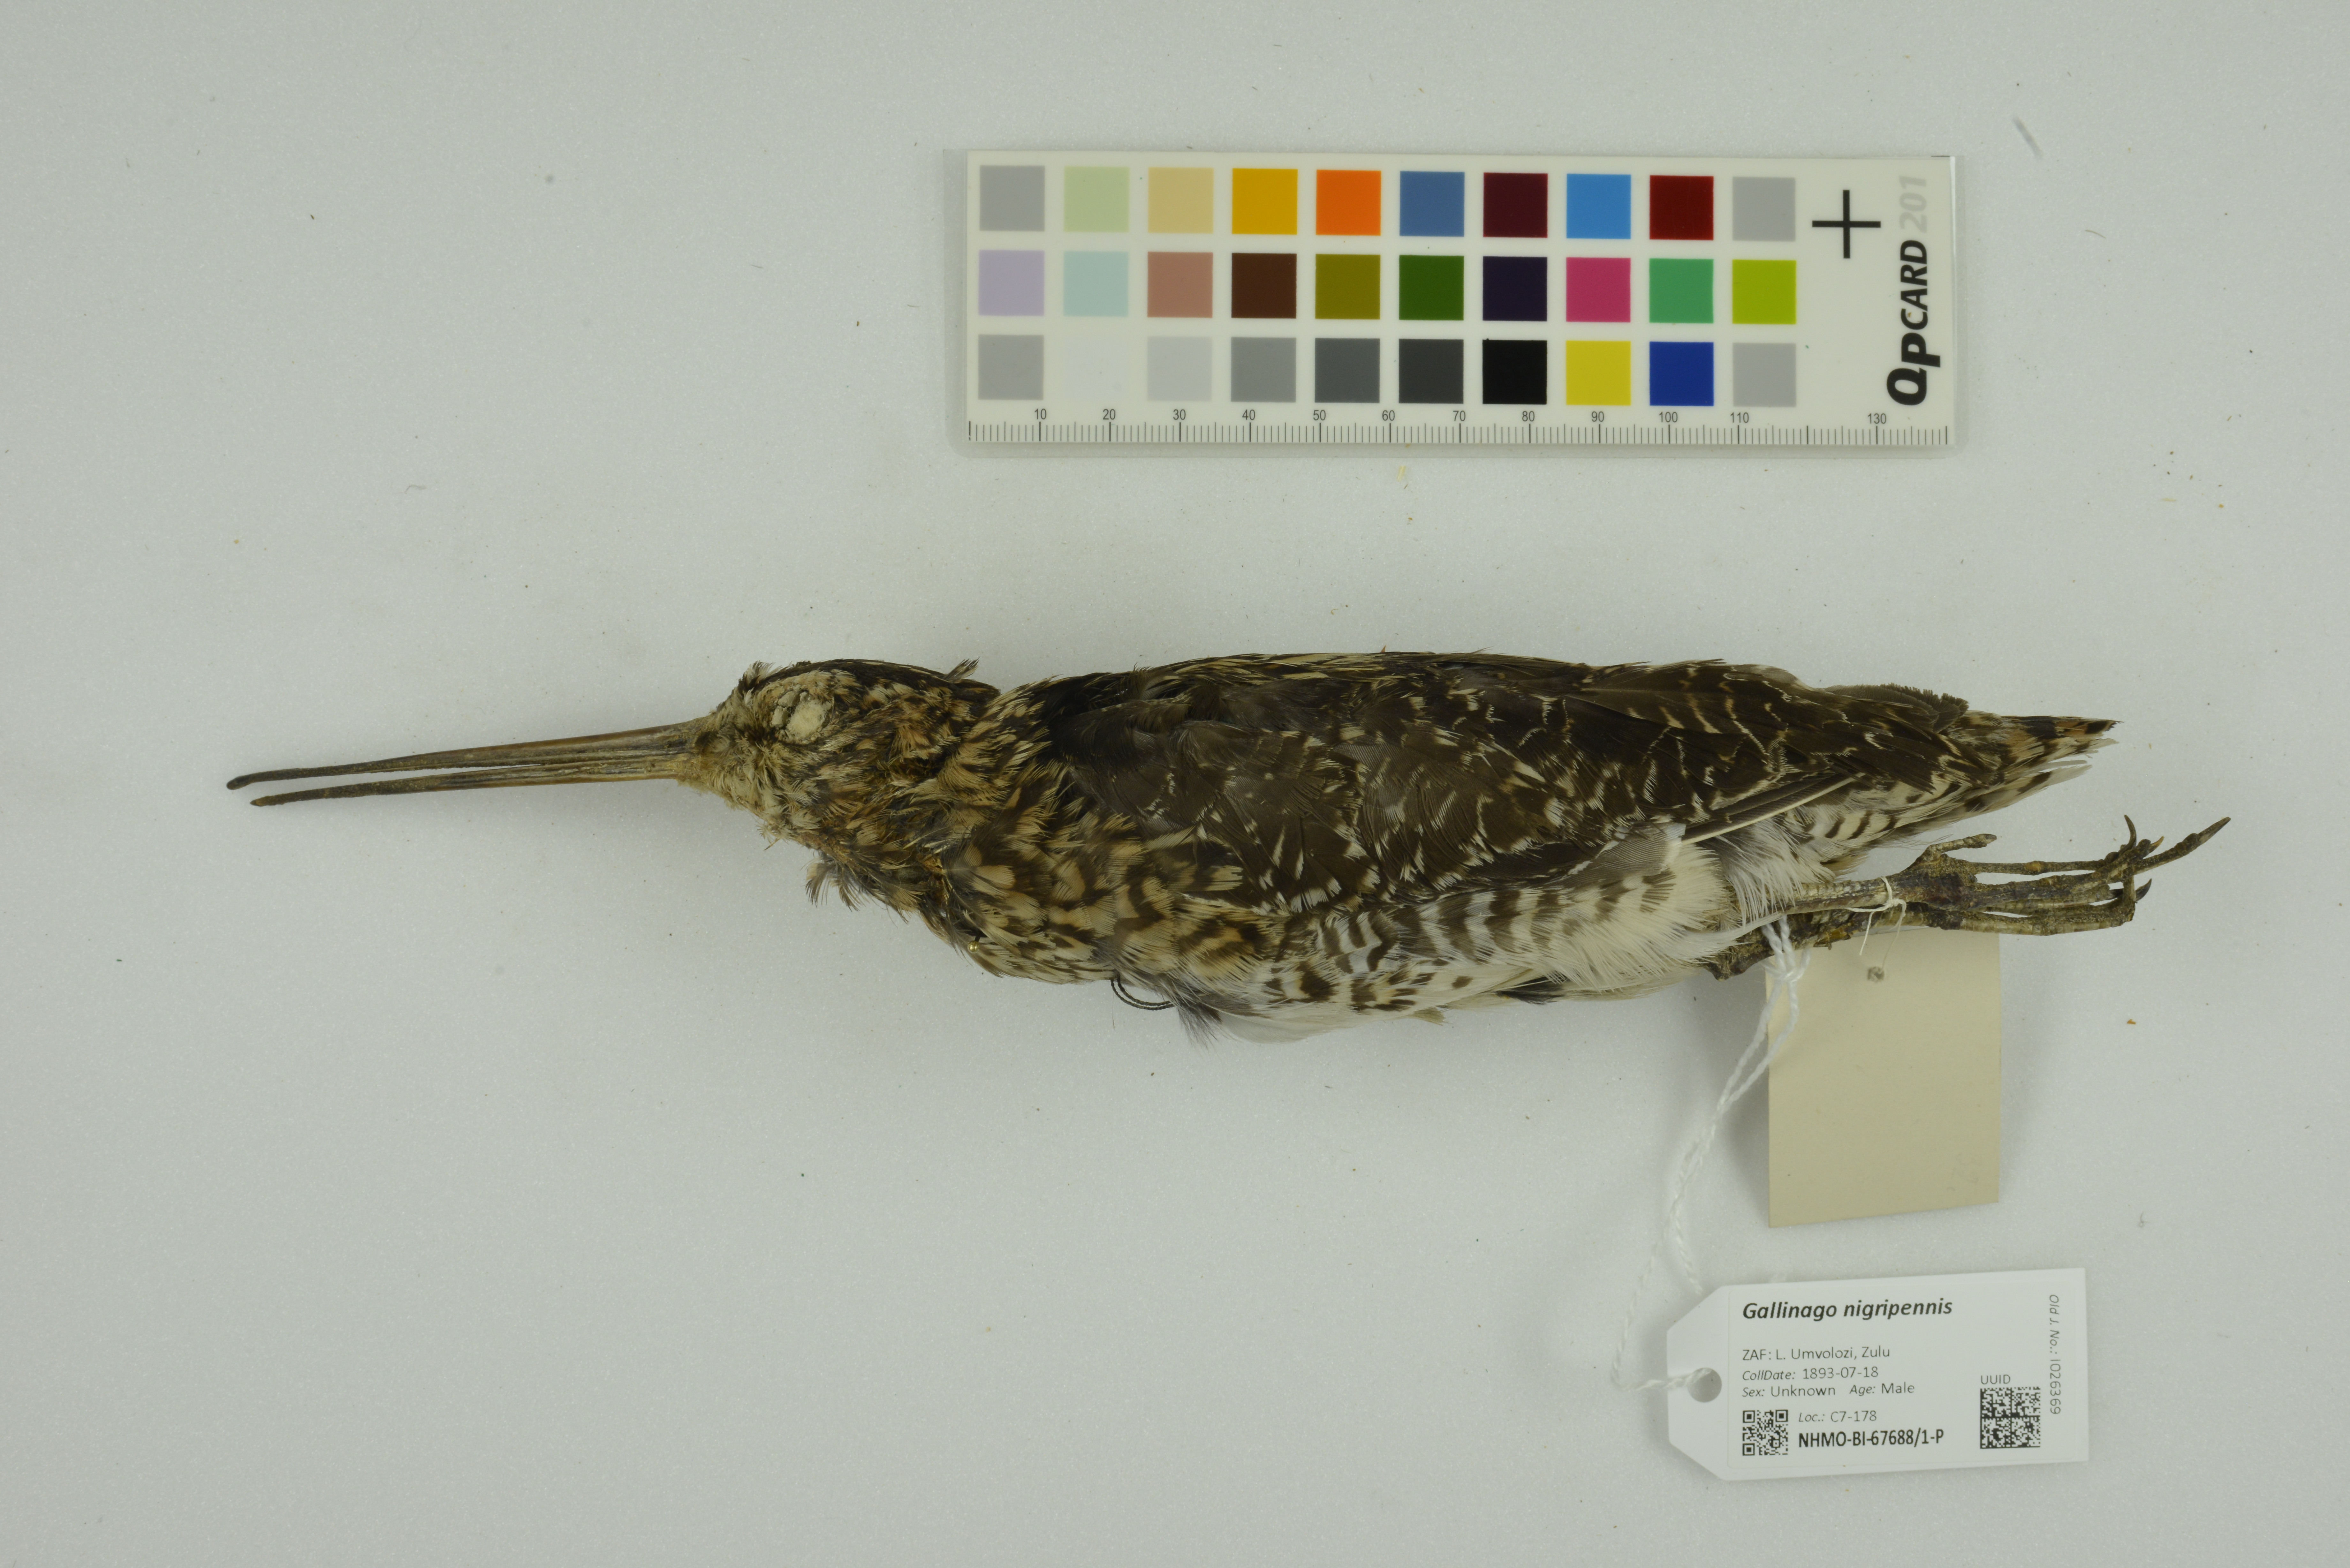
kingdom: Animalia
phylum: Chordata
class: Aves
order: Charadriiformes
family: Scolopacidae
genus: Gallinago
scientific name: Gallinago nigripennis
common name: African snipe
